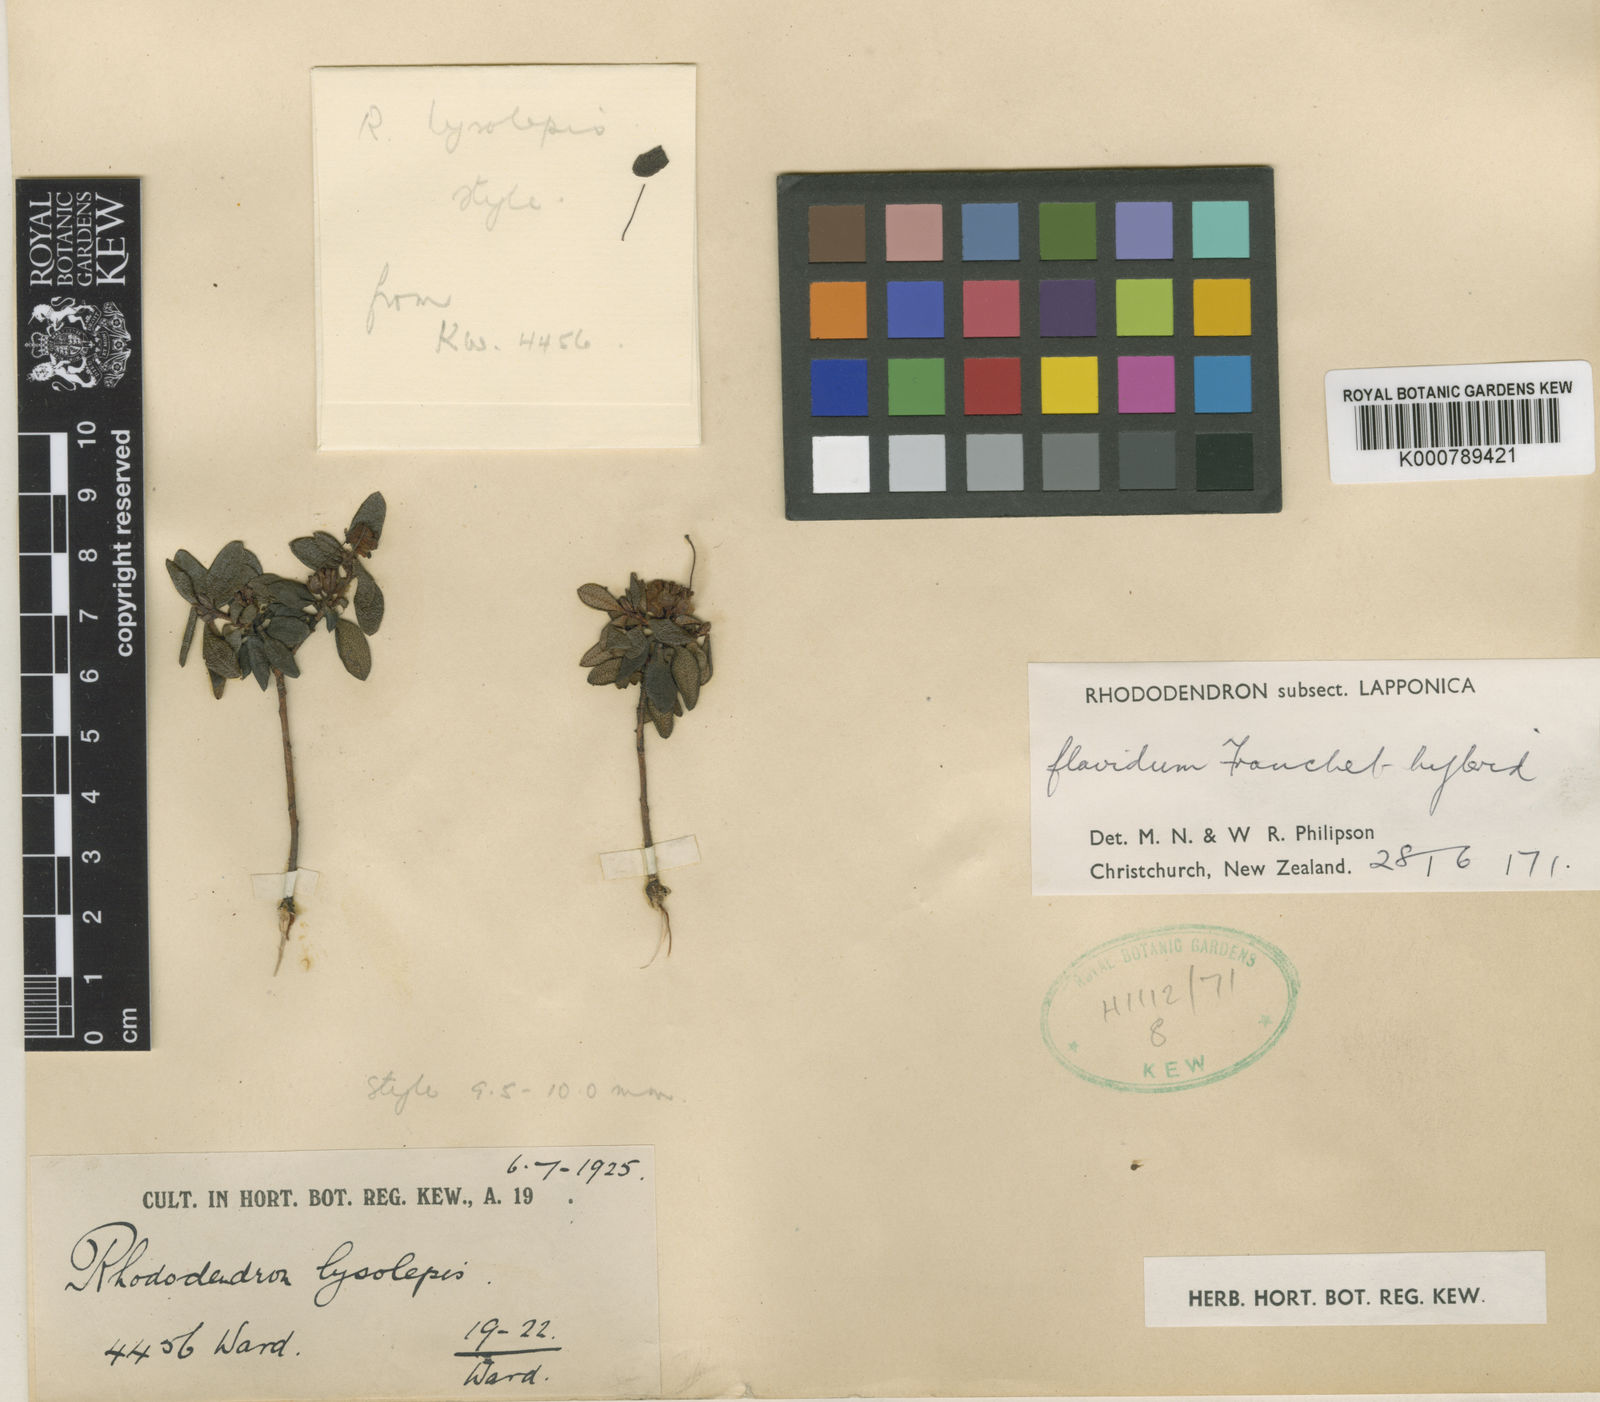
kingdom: Plantae
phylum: Tracheophyta
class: Magnoliopsida
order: Ericales
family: Ericaceae
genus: Rhododendron
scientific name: Rhododendron
